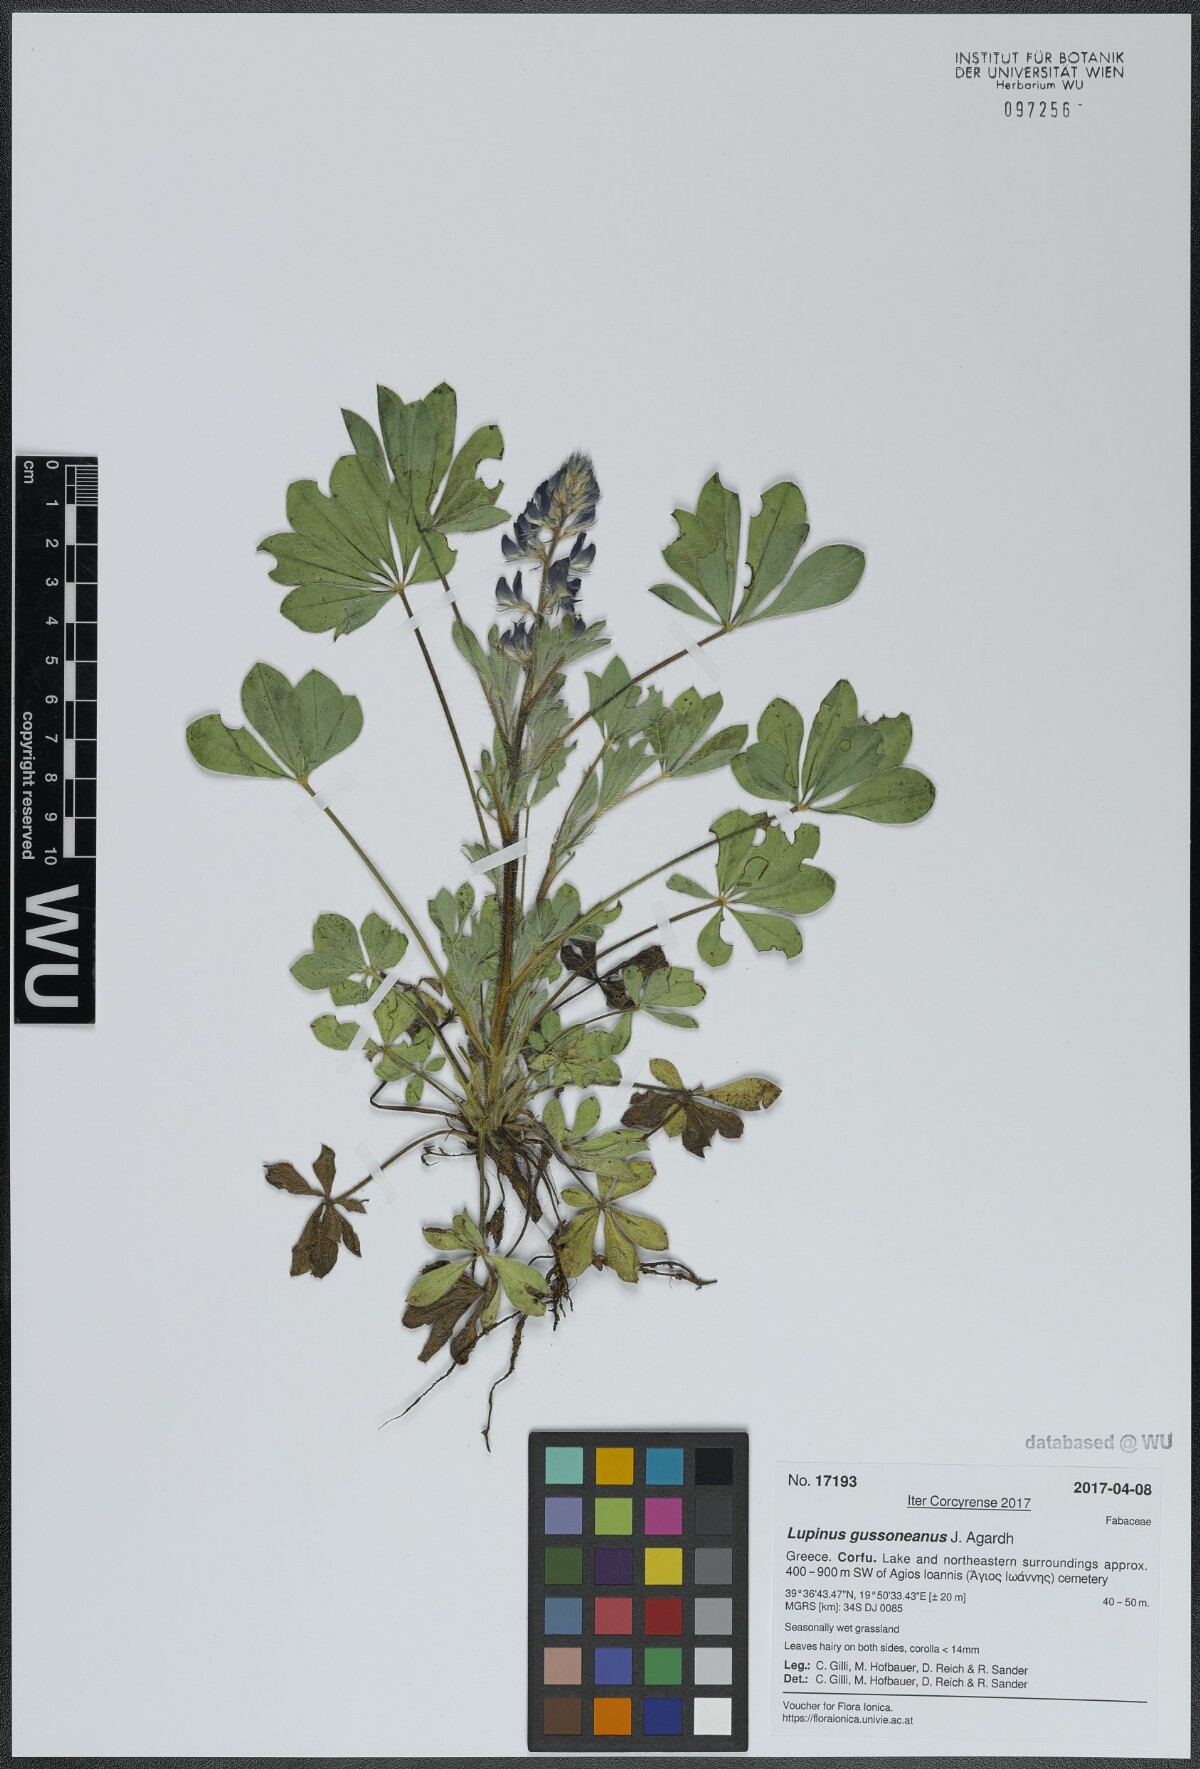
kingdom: Plantae
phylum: Tracheophyta
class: Magnoliopsida
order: Fabales
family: Fabaceae
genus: Lupinus
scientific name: Lupinus gussoneanus
